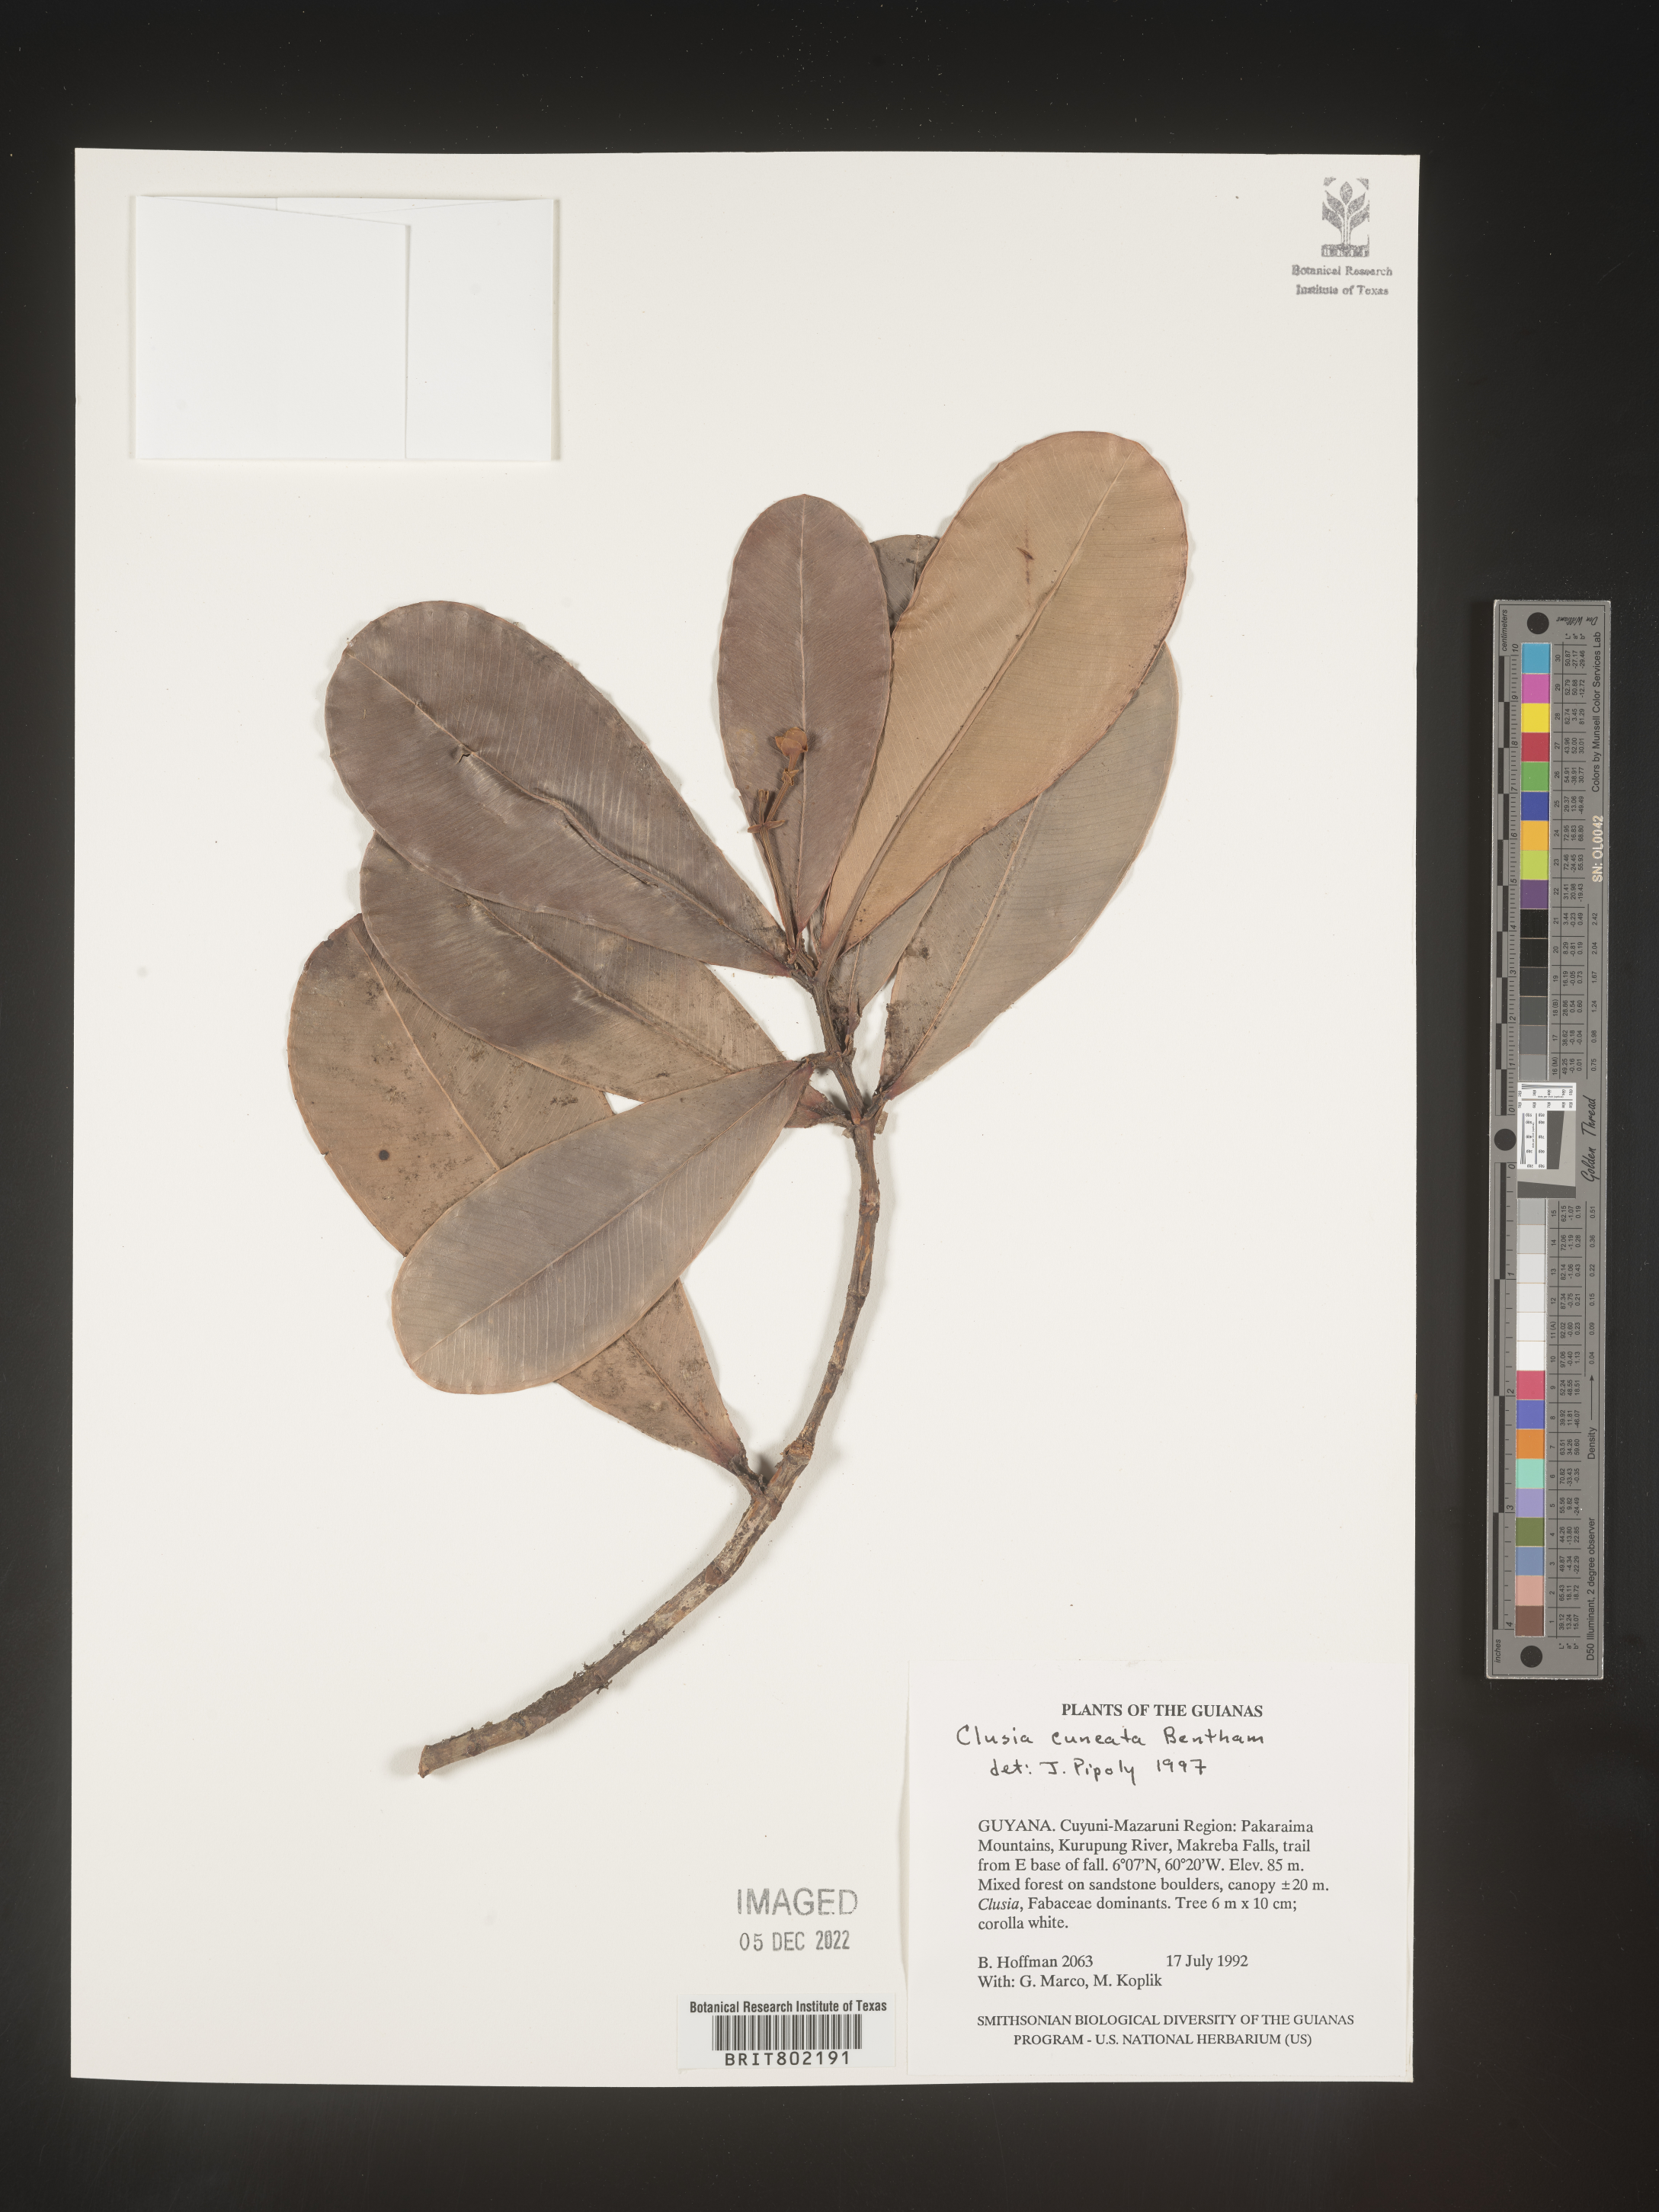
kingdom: Plantae
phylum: Tracheophyta
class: Magnoliopsida
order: Malpighiales
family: Clusiaceae
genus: Clusia
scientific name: Clusia
